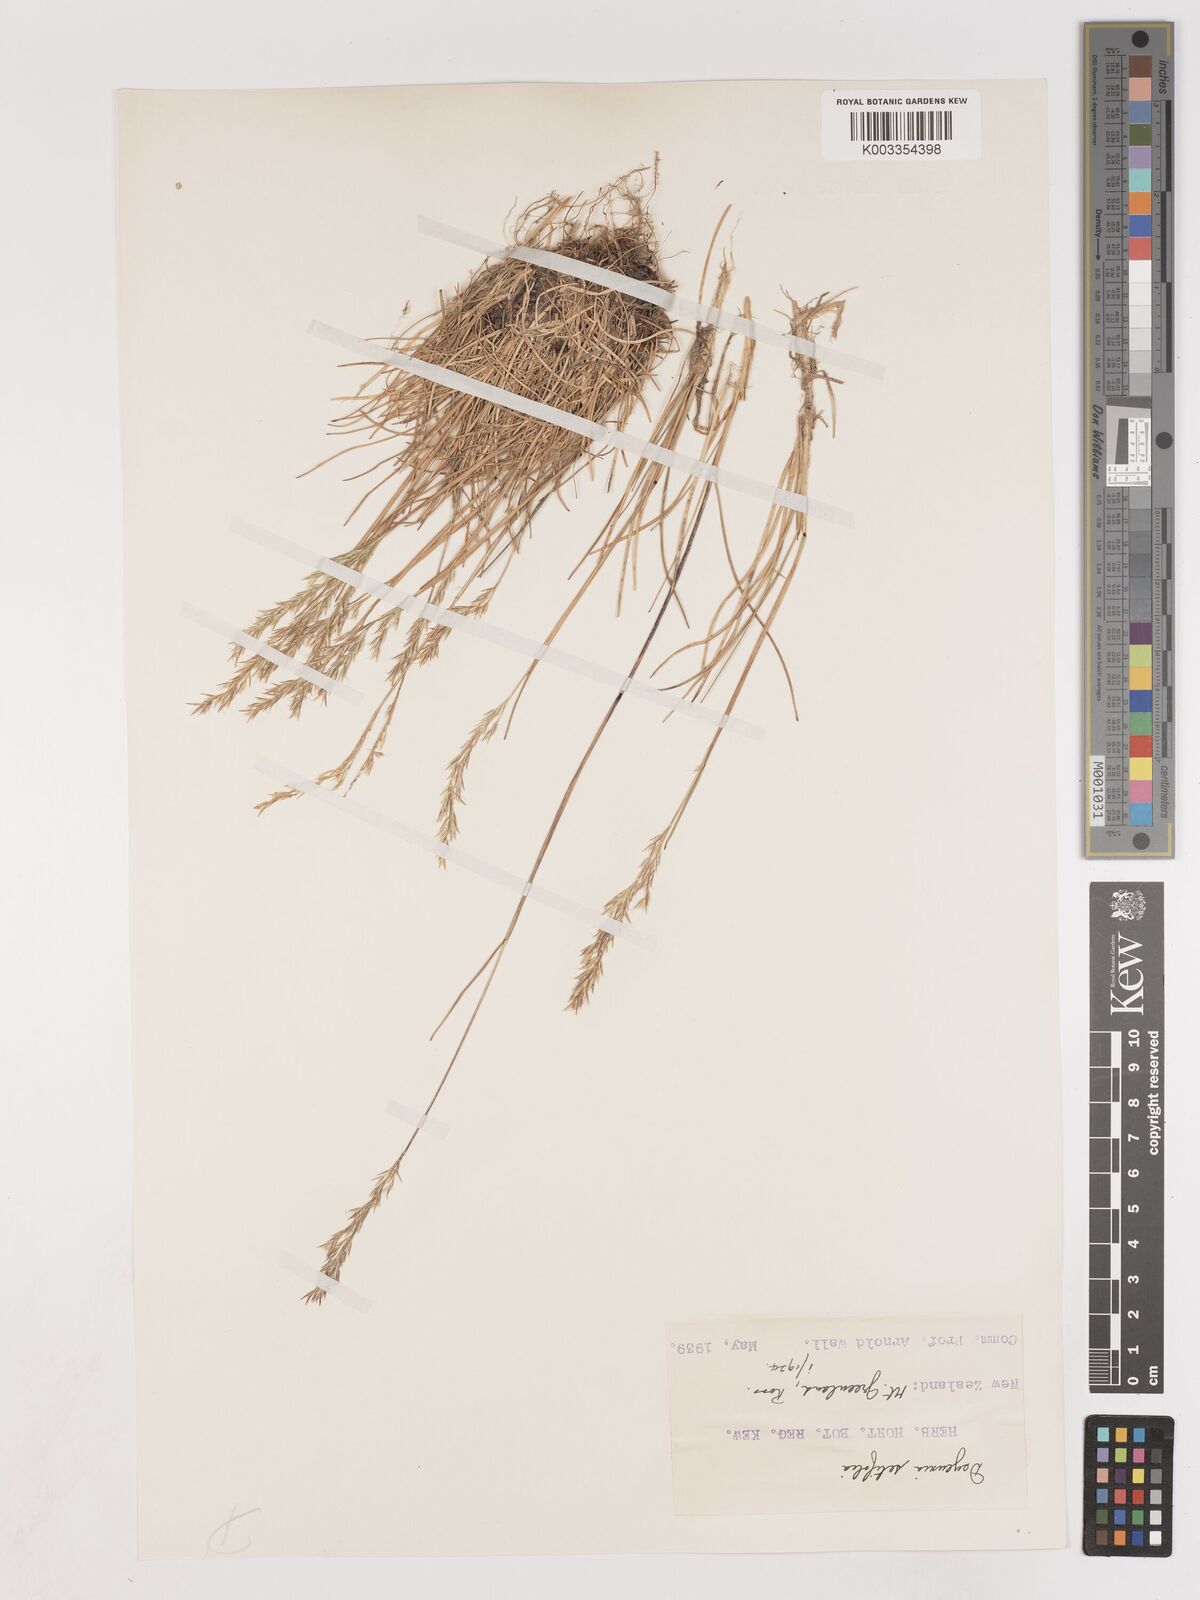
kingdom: Plantae
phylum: Tracheophyta
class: Liliopsida
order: Poales
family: Poaceae
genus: Agrostis
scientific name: Agrostis aucklandica
